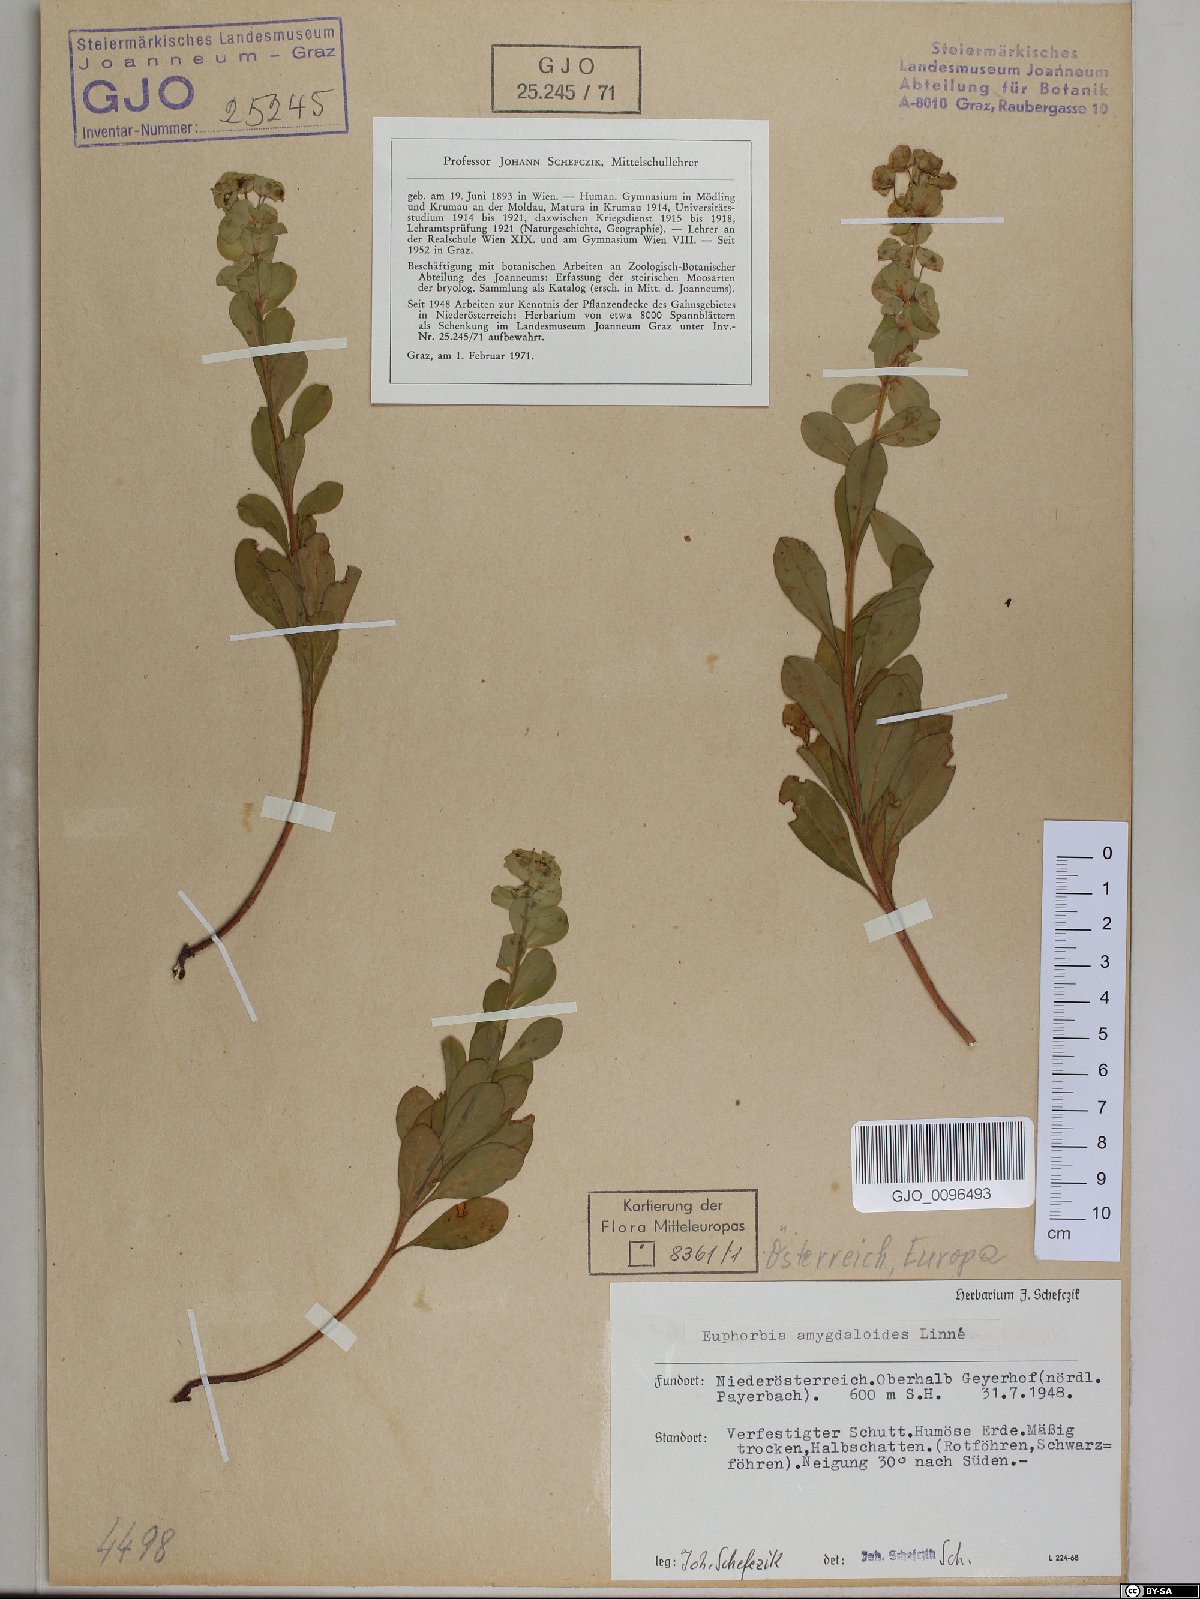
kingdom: Plantae
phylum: Tracheophyta
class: Magnoliopsida
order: Malpighiales
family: Euphorbiaceae
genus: Euphorbia
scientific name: Euphorbia amygdaloides
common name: Wood spurge
